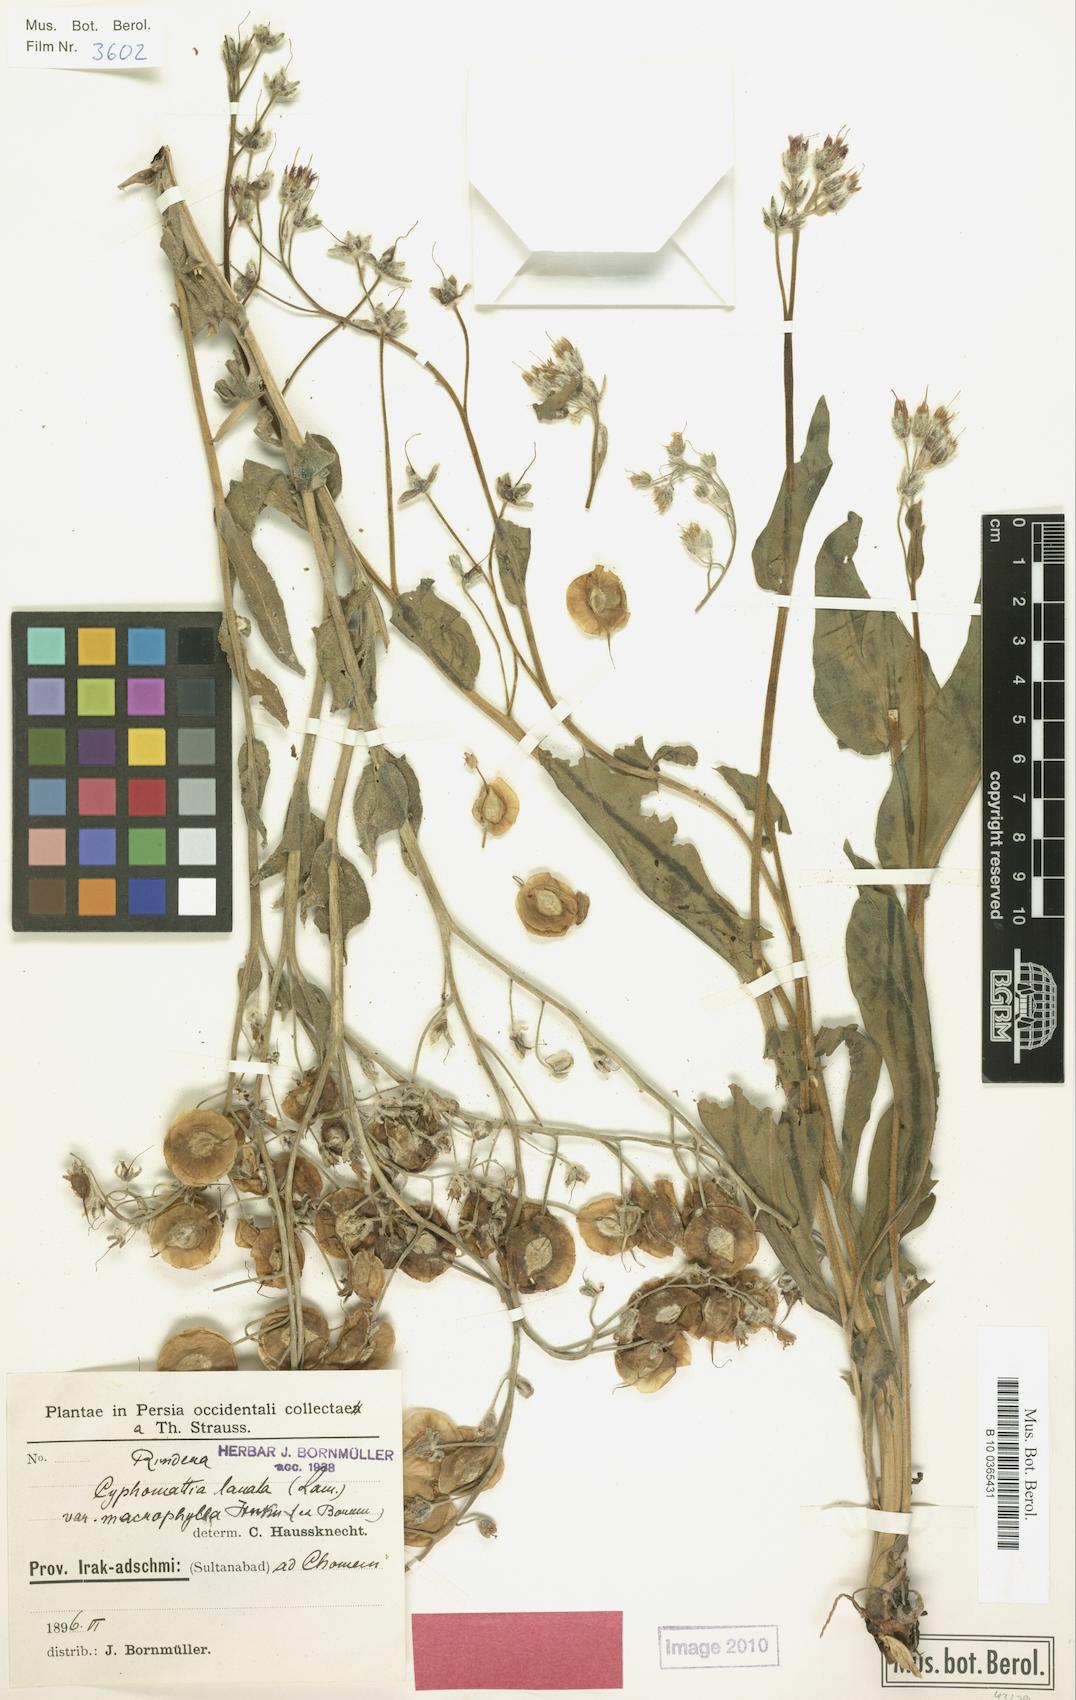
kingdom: Plantae
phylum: Tracheophyta
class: Magnoliopsida
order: Boraginales
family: Boraginaceae
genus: Rindera
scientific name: Rindera lanata
